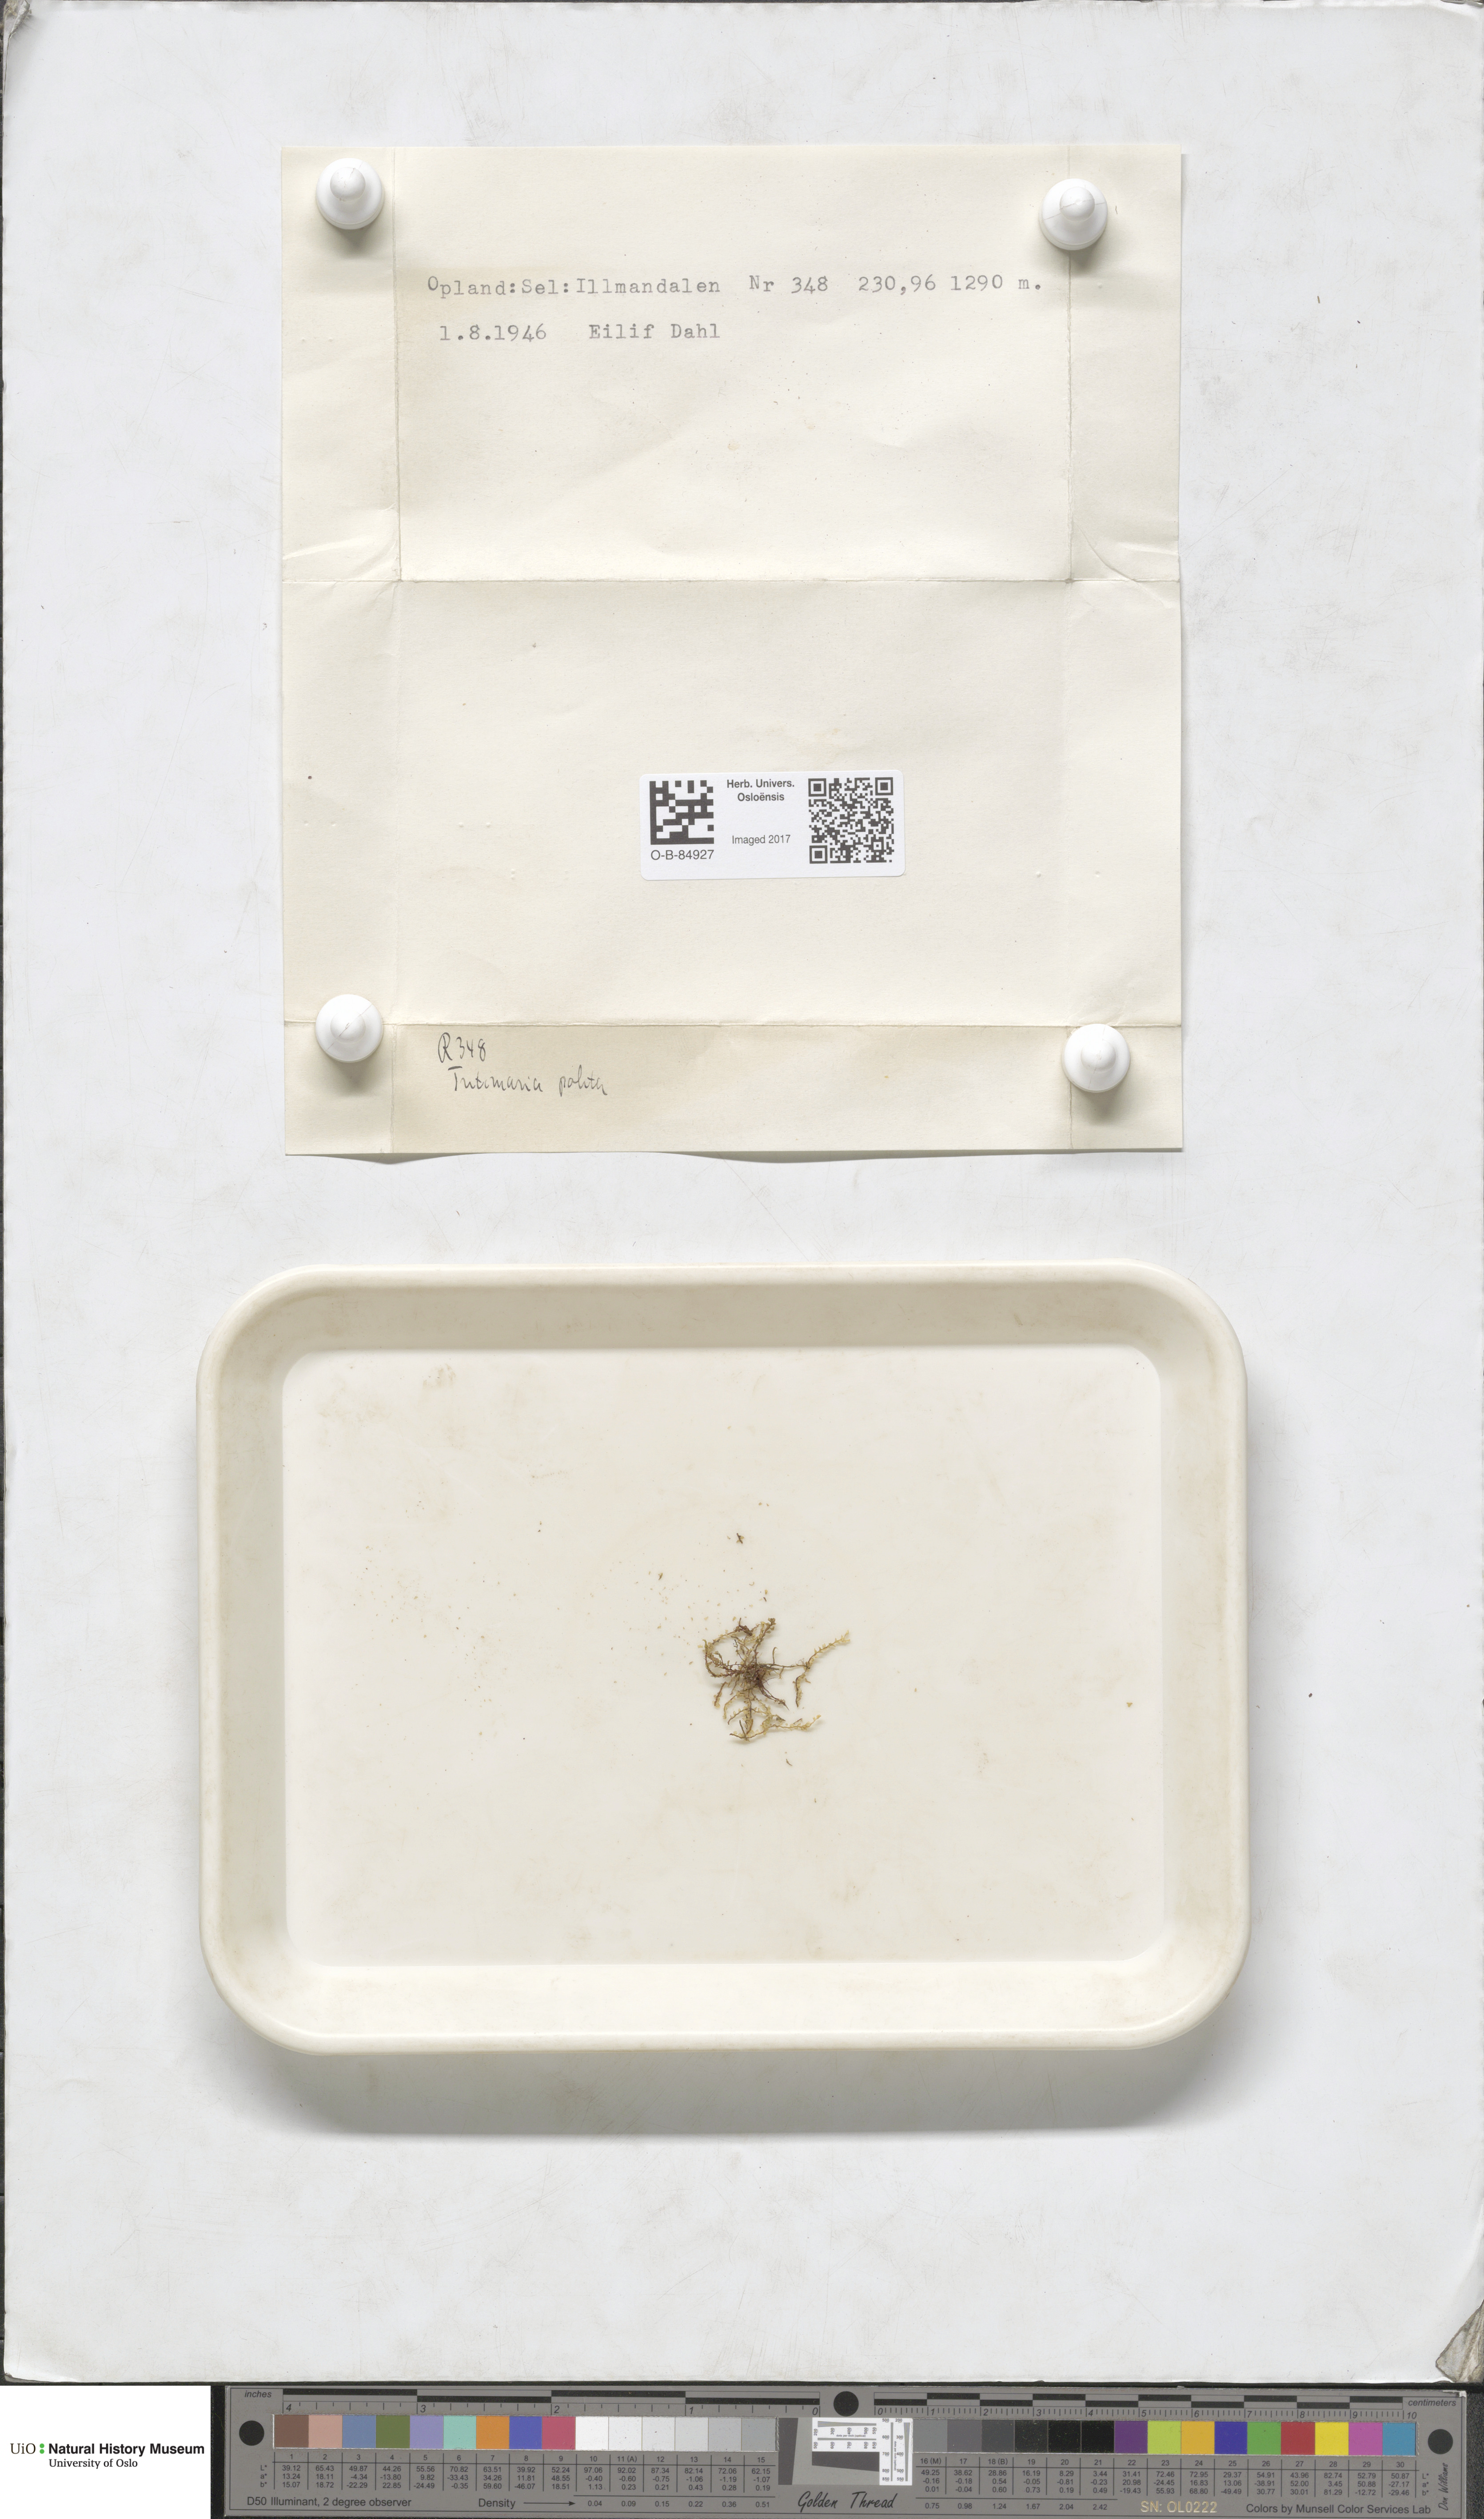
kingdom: Plantae
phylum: Marchantiophyta
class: Jungermanniopsida
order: Jungermanniales
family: Scapaniaceae
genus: Saccobasis
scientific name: Saccobasis polita
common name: Flush notchwort
